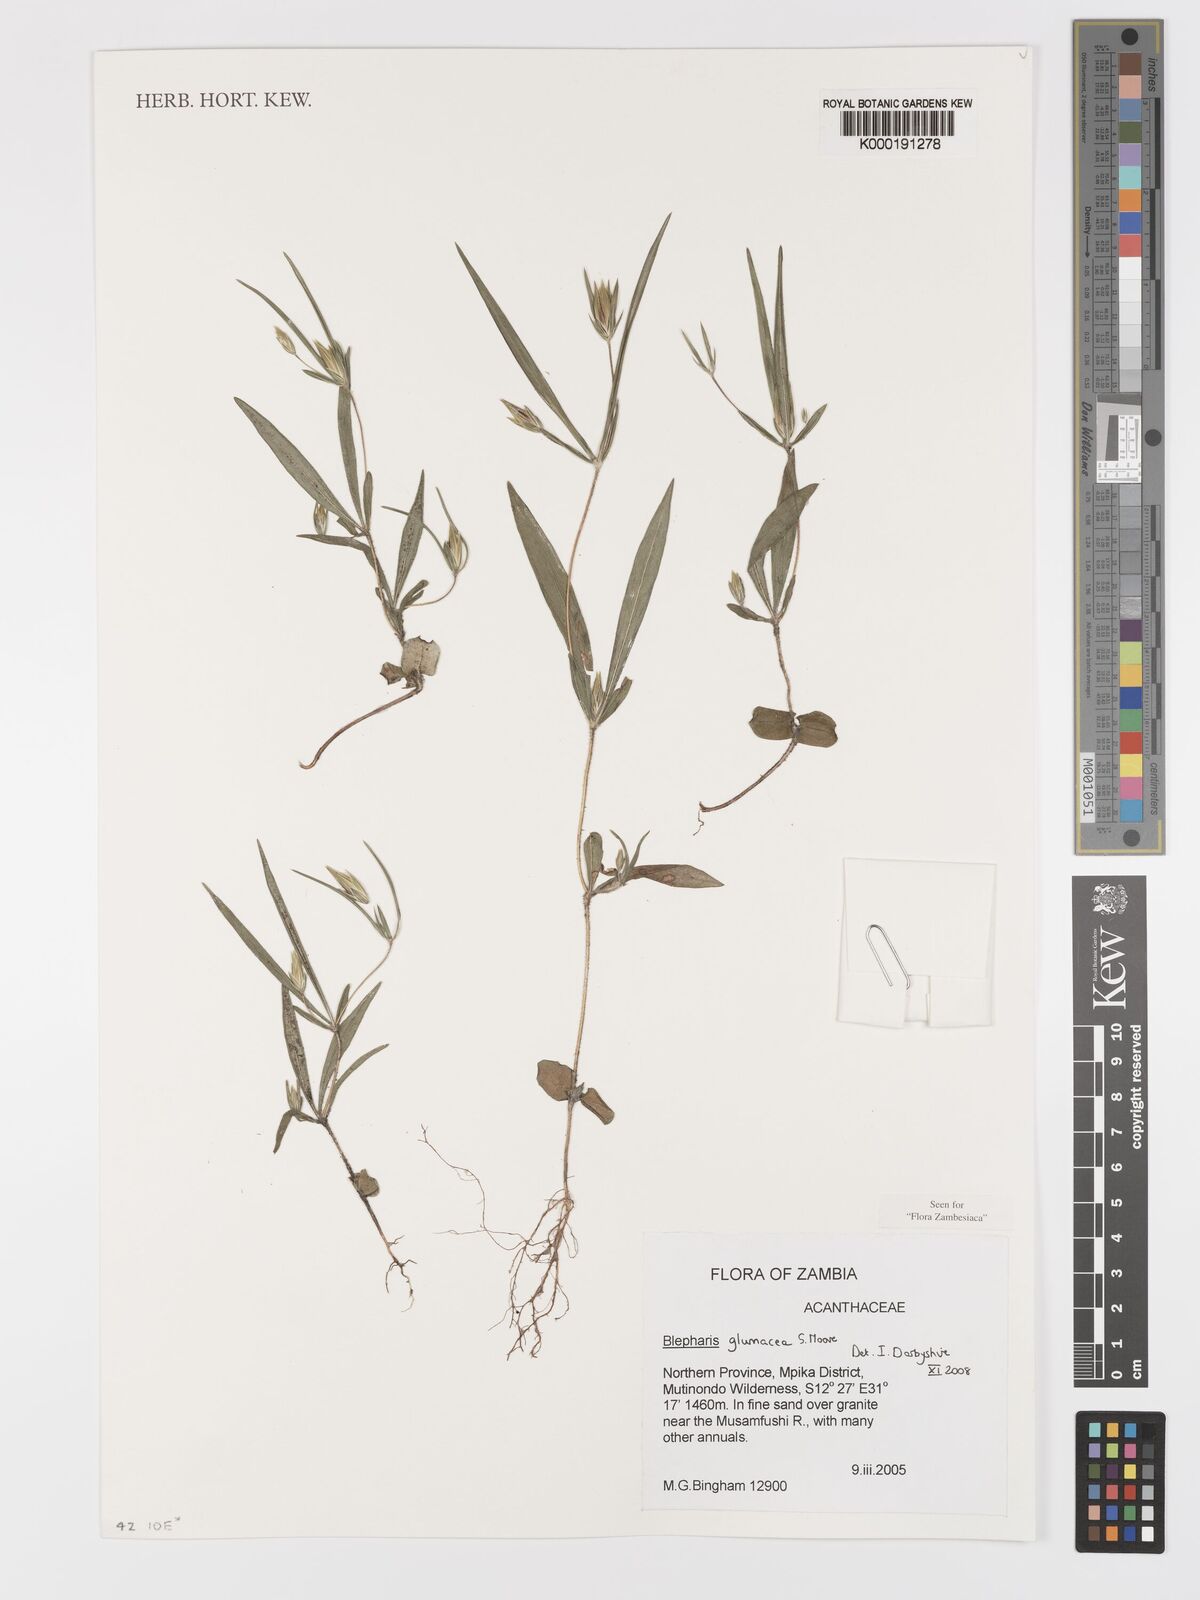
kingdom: Plantae
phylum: Tracheophyta
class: Magnoliopsida
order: Lamiales
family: Acanthaceae
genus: Blepharis
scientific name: Blepharis glumacea
